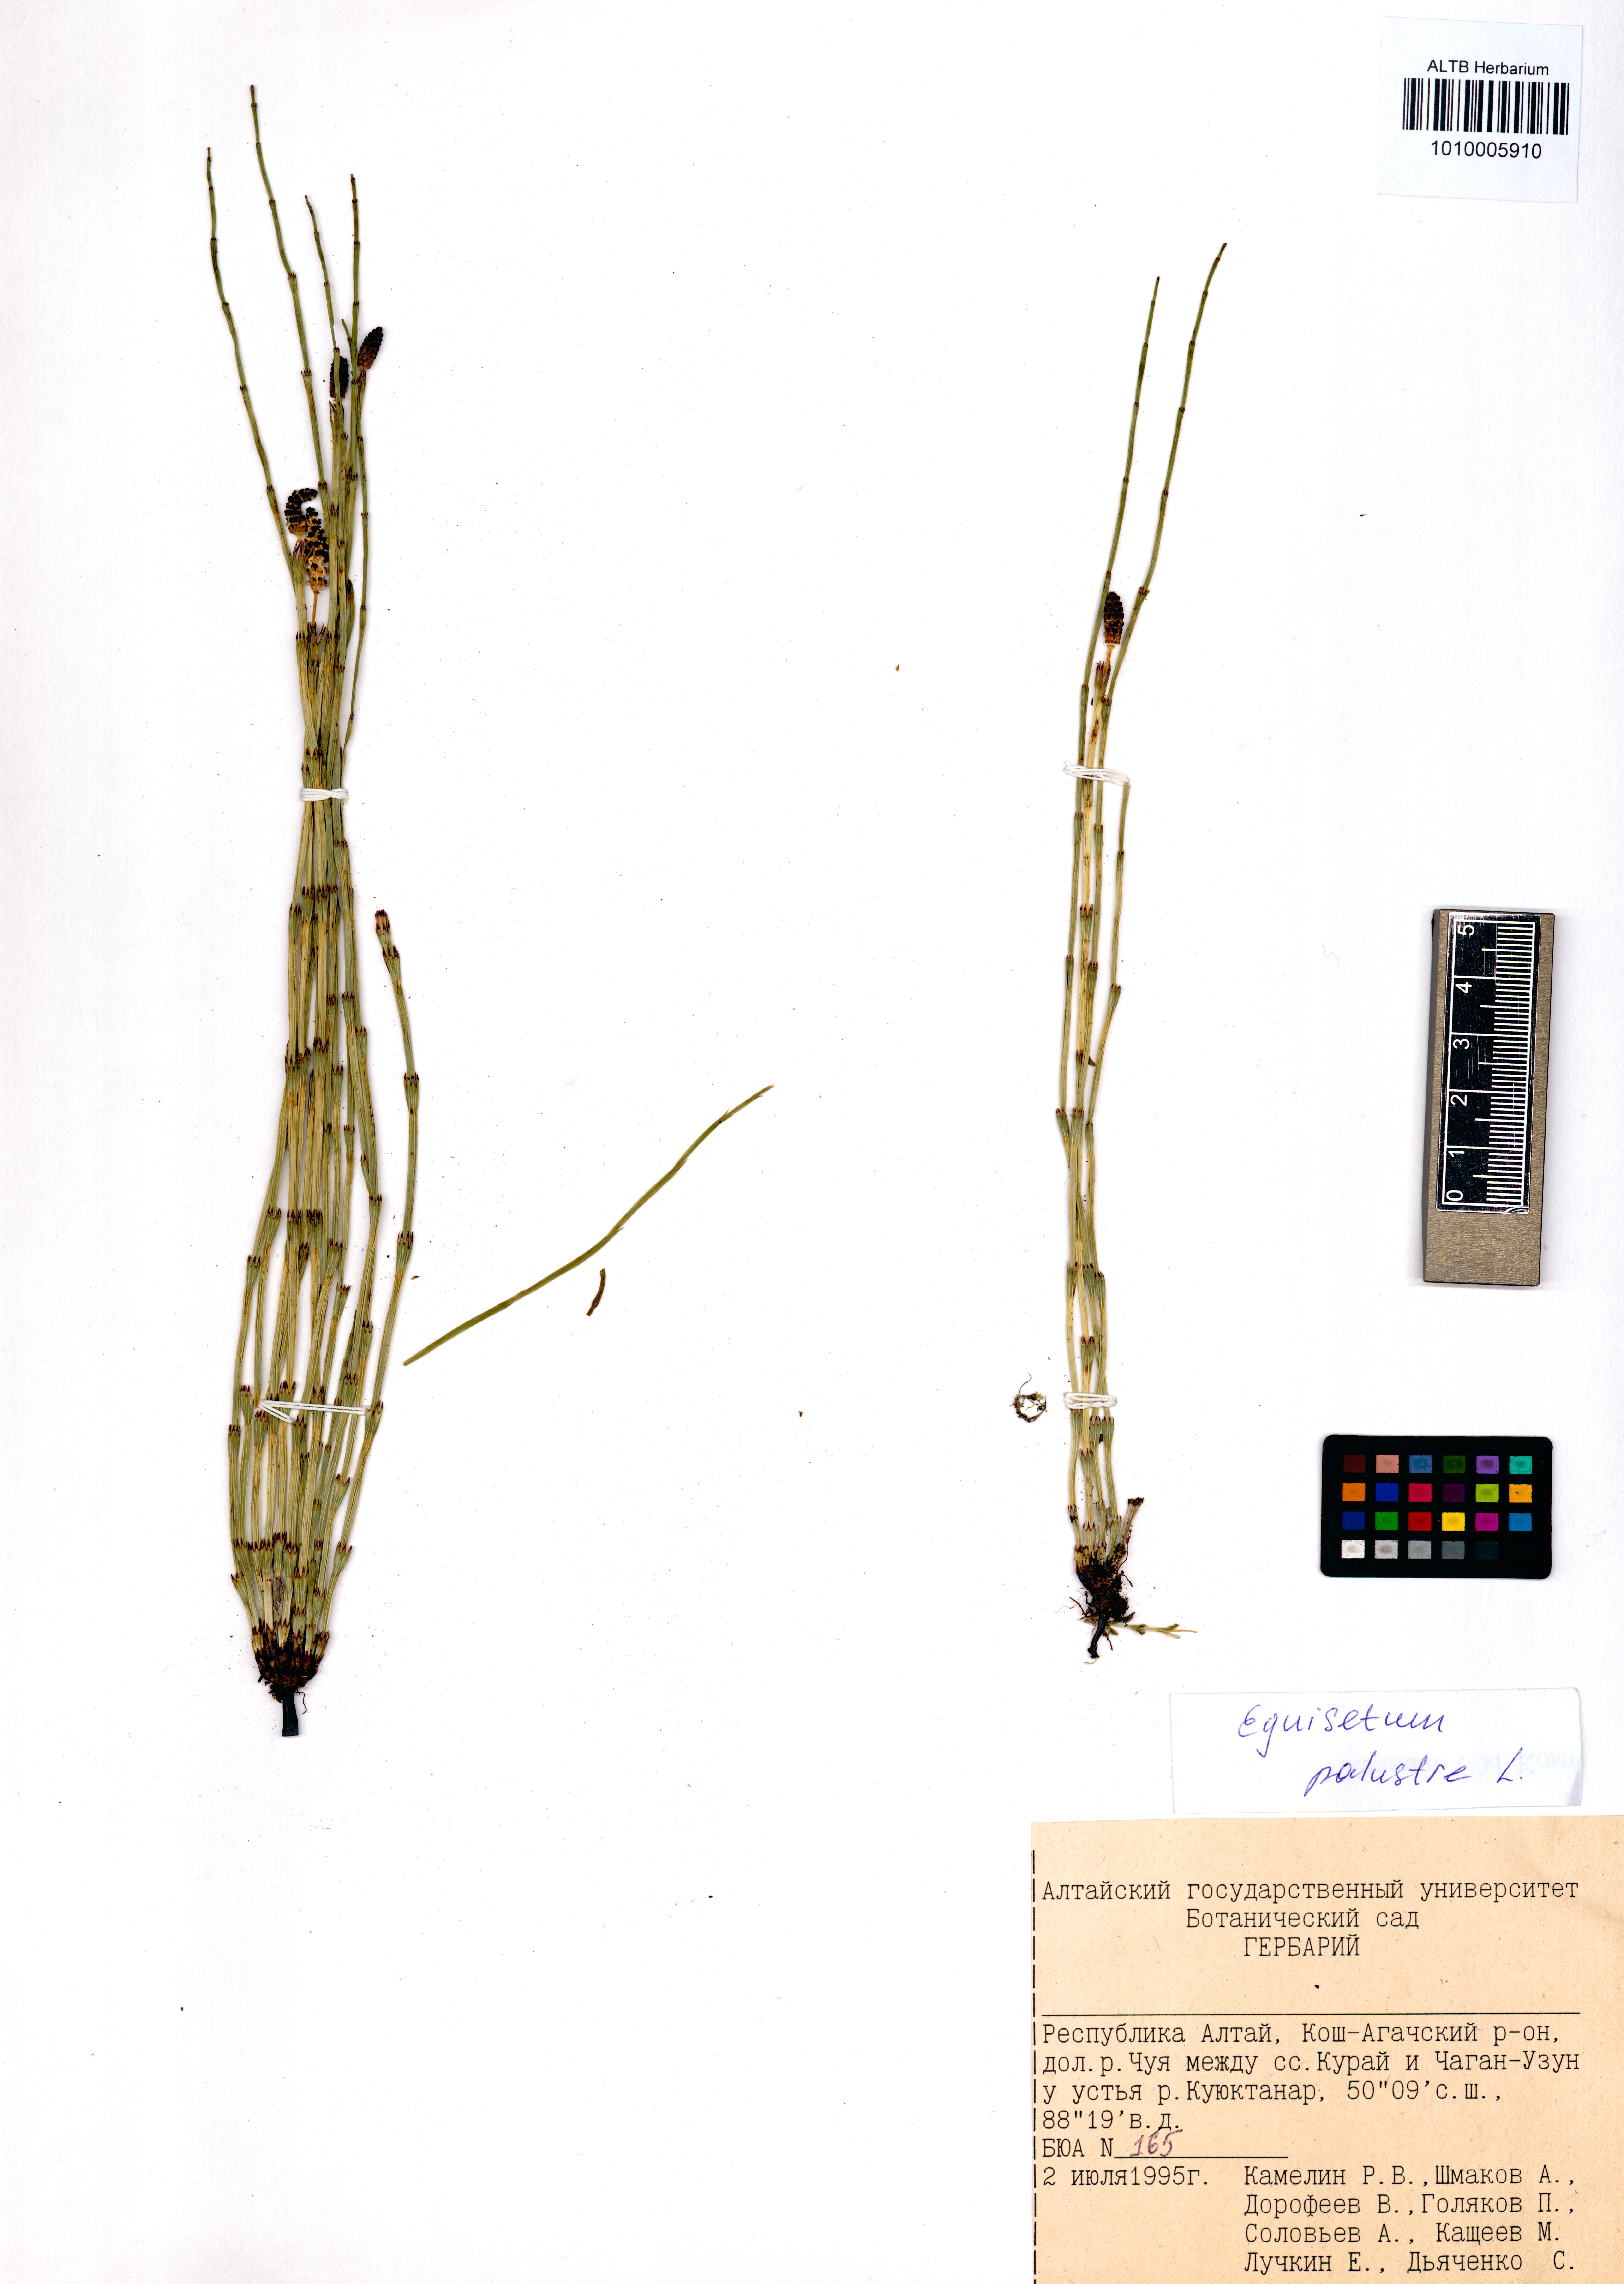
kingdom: Plantae
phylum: Tracheophyta
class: Polypodiopsida
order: Equisetales
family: Equisetaceae
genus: Equisetum
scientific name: Equisetum palustre
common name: Marsh horsetail
